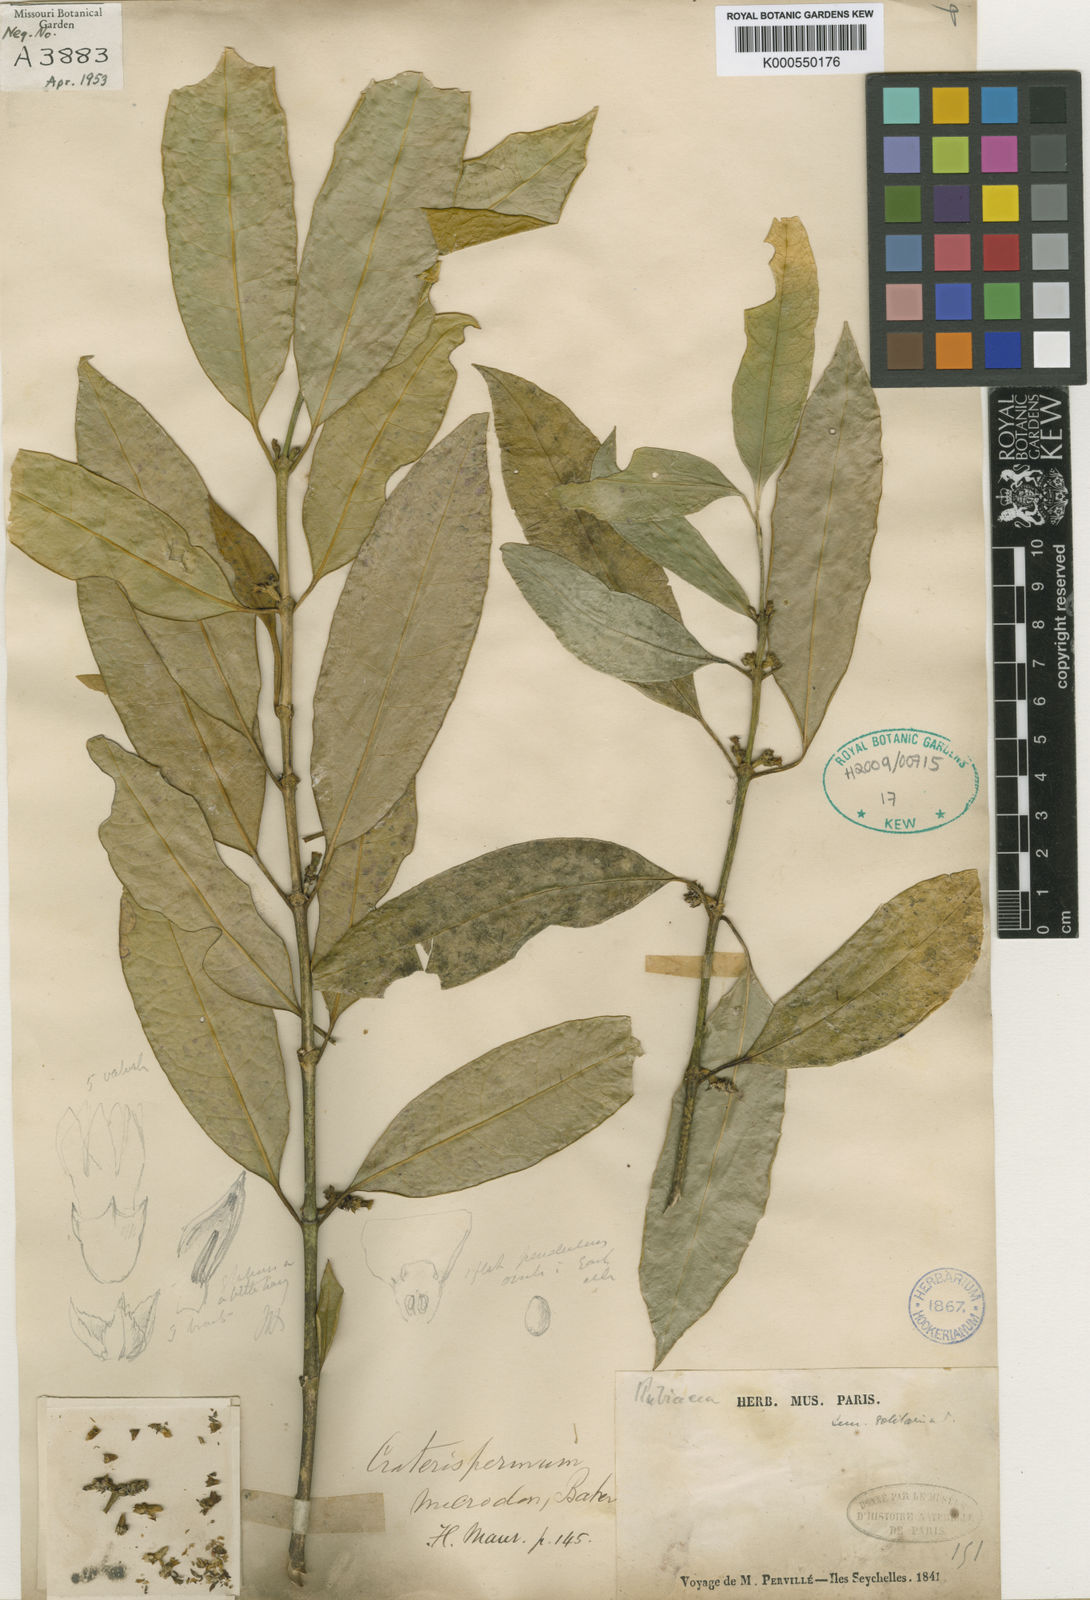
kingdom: Plantae
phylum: Tracheophyta
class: Magnoliopsida
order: Gentianales
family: Rubiaceae
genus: Craterispermum
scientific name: Craterispermum microdon
